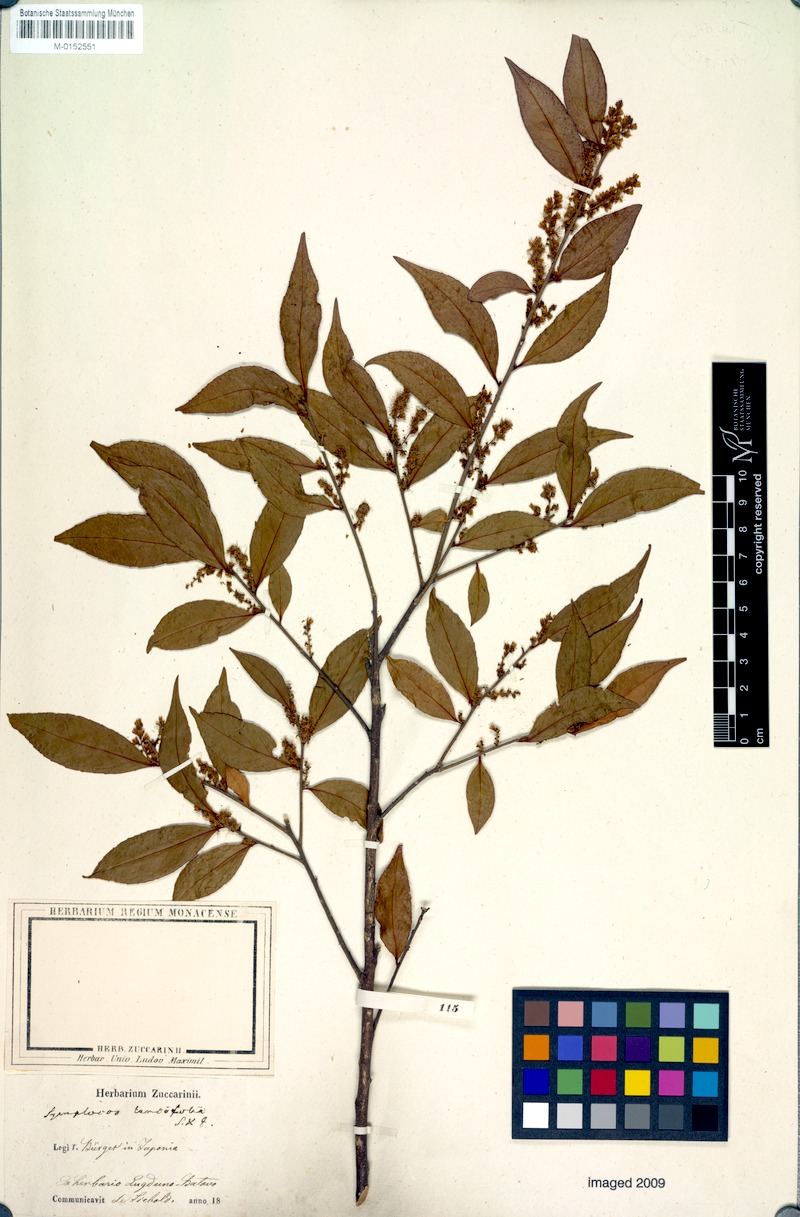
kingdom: Plantae
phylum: Tracheophyta
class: Magnoliopsida
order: Ericales
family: Symplocaceae
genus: Symplocos
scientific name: Symplocos lancifolia
